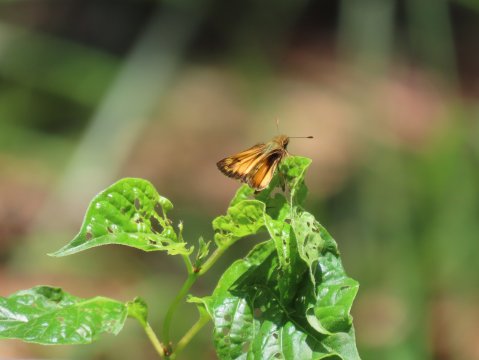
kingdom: Animalia
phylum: Arthropoda
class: Insecta
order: Lepidoptera
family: Hesperiidae
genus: Lon
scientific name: Lon zabulon
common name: Zabulon Skipper
